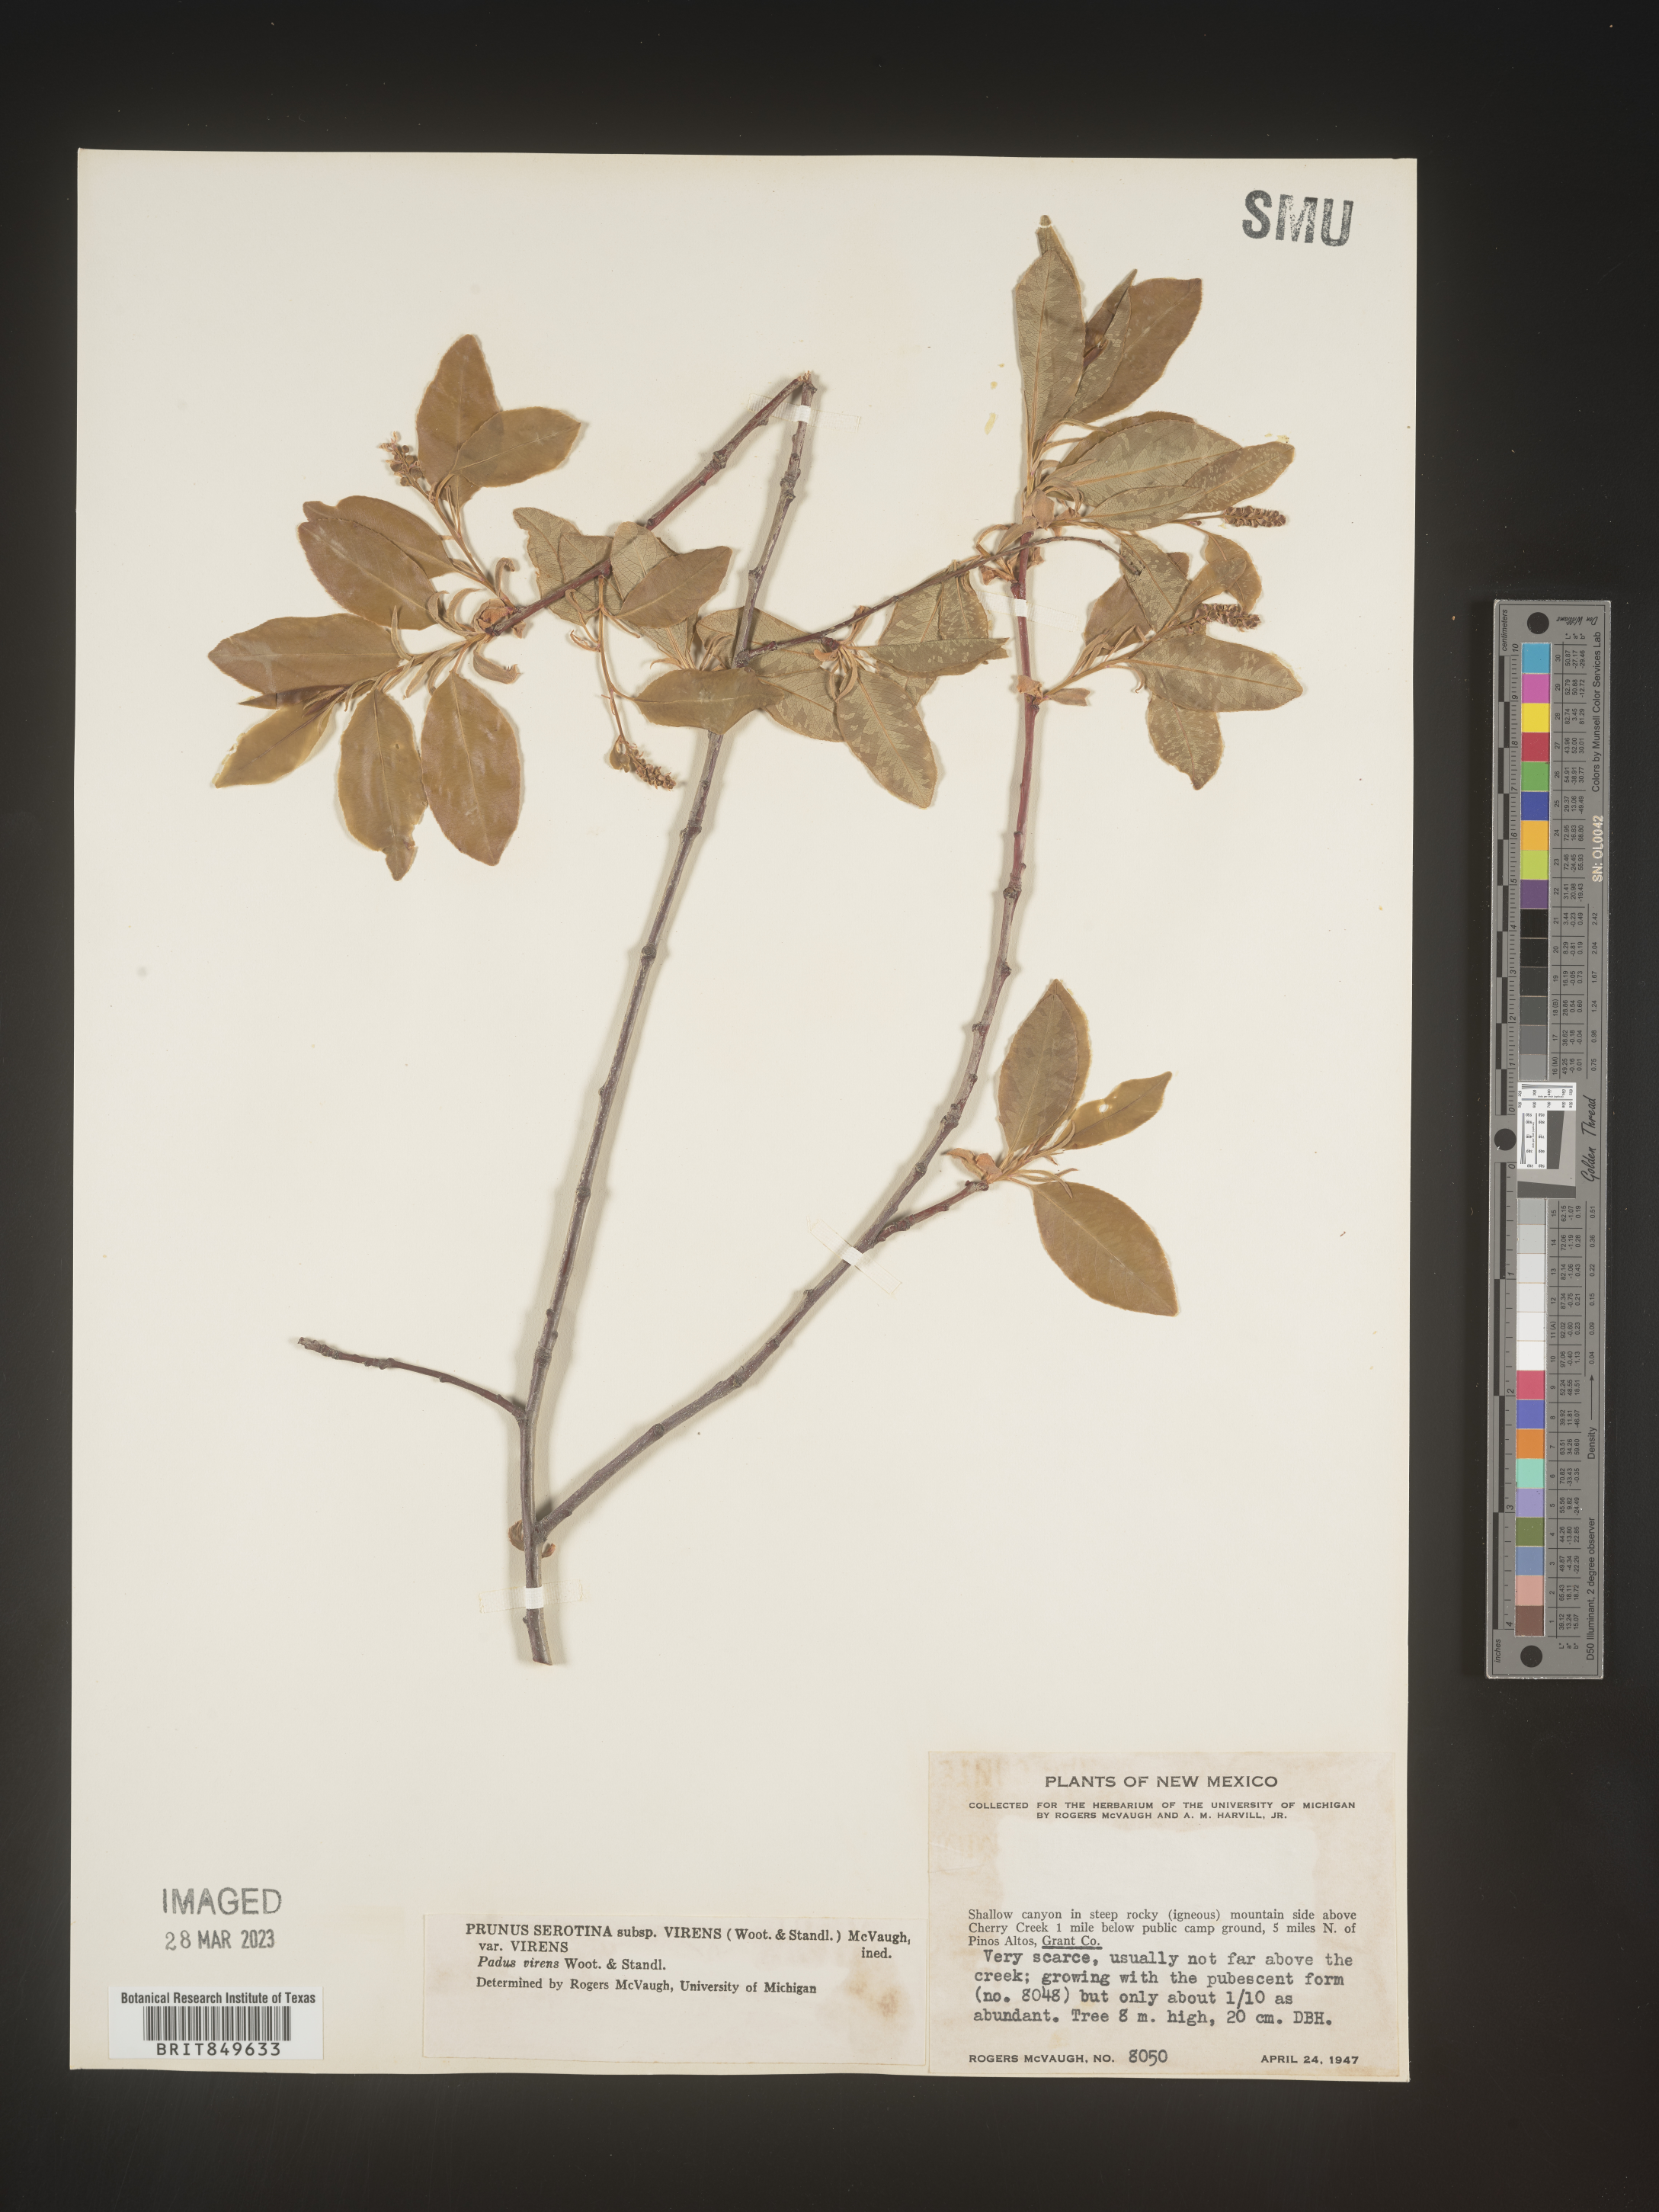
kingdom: Plantae
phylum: Tracheophyta
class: Magnoliopsida
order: Rosales
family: Rosaceae
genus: Prunus
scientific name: Prunus serotina
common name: Black cherry
